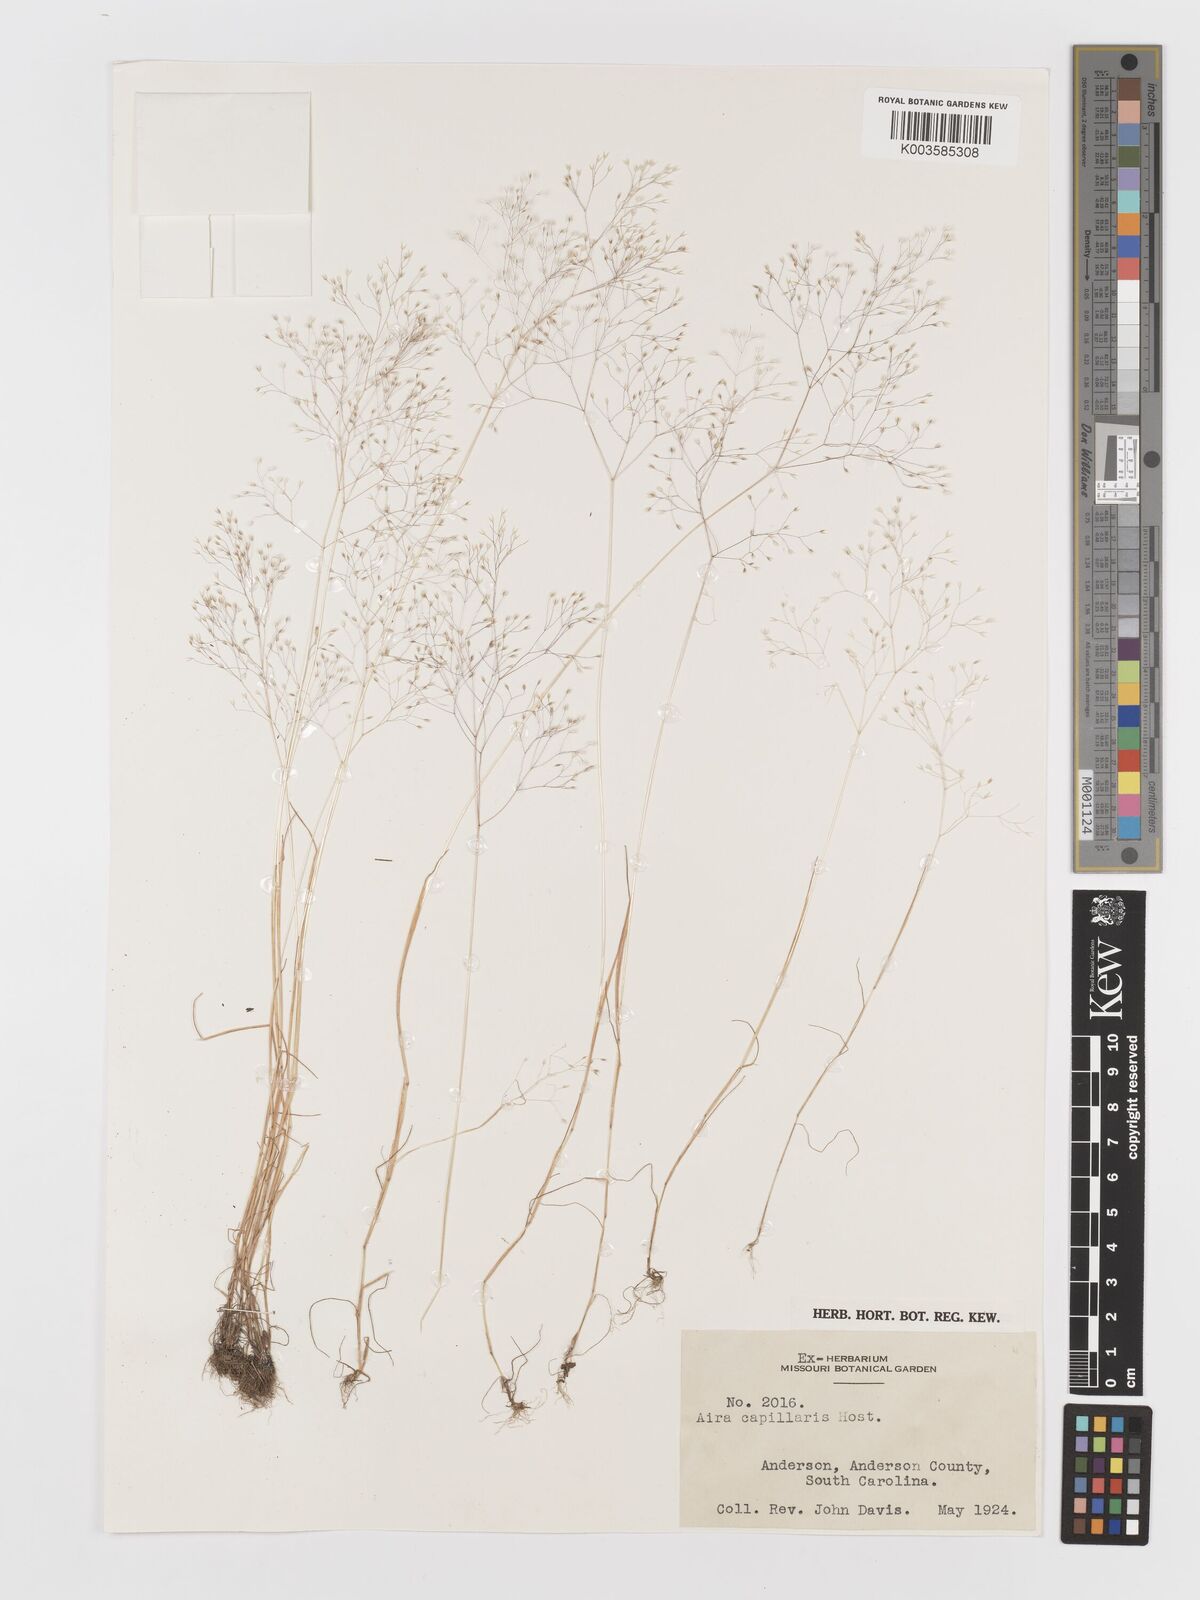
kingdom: Plantae
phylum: Tracheophyta
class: Liliopsida
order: Poales
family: Poaceae
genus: Aira
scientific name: Aira elegans
